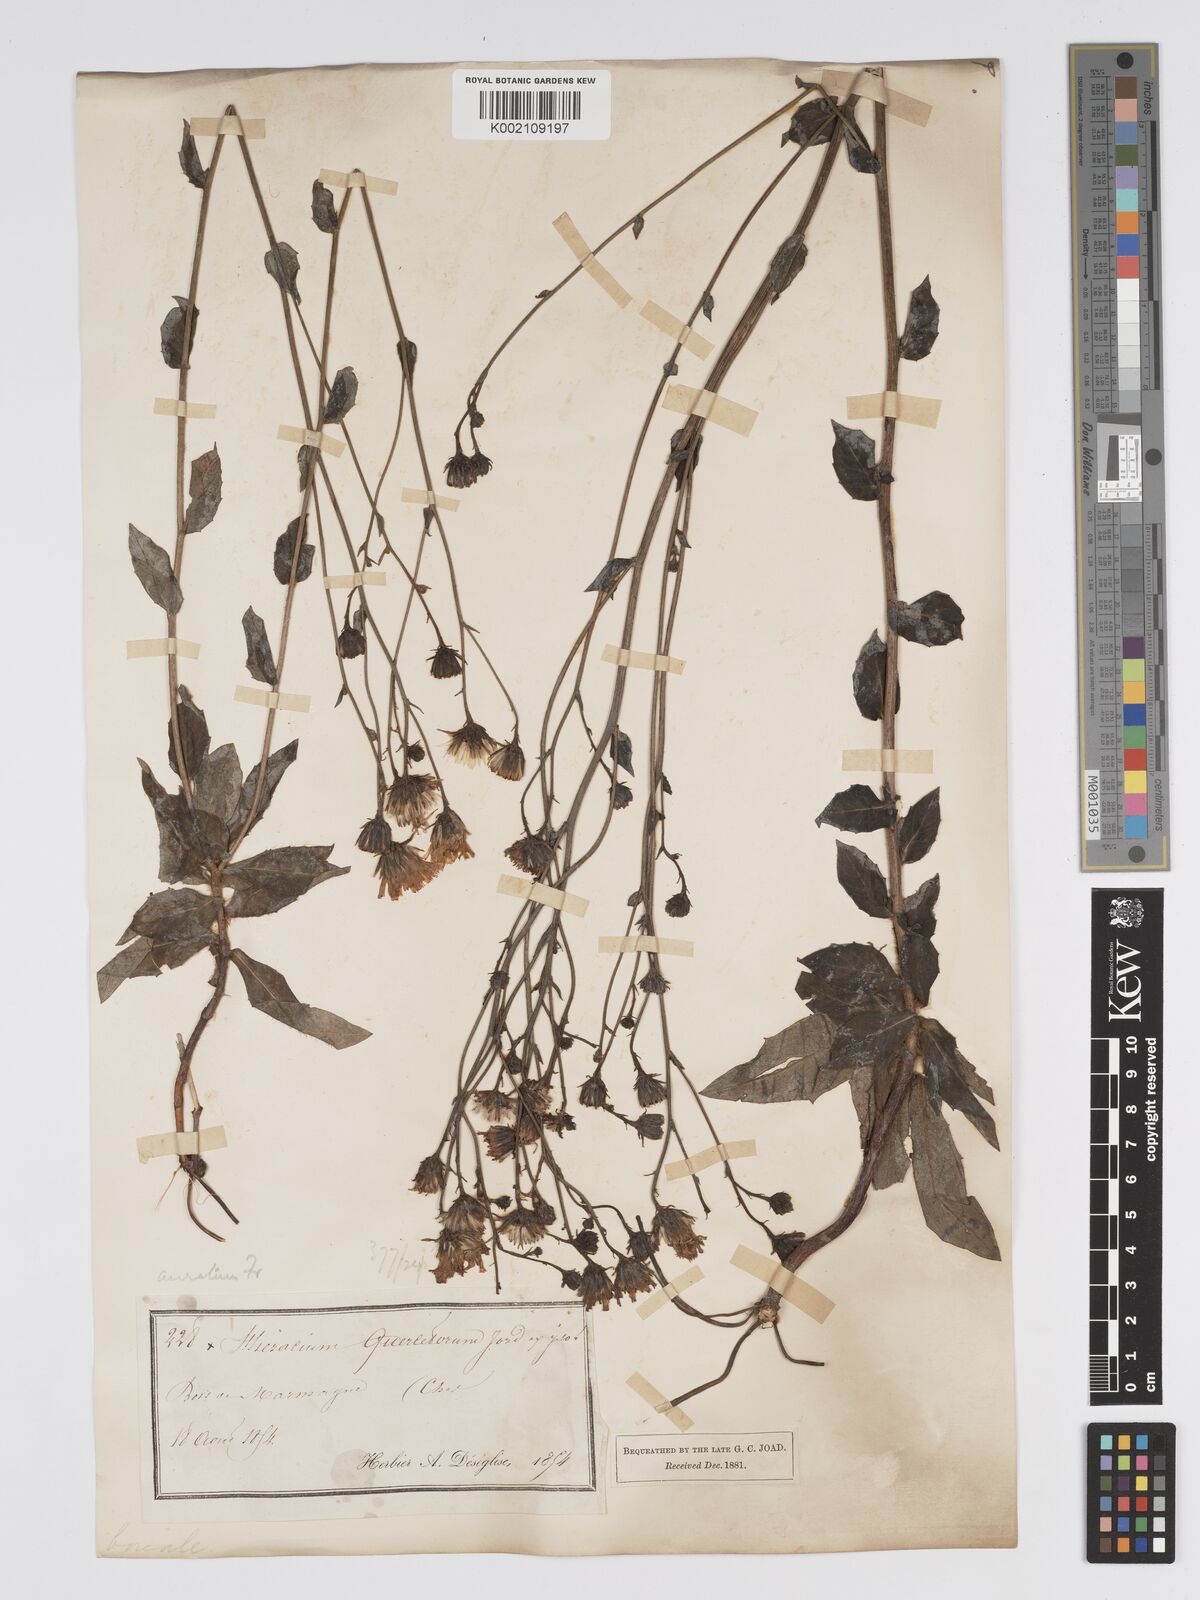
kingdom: Plantae
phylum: Tracheophyta
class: Magnoliopsida
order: Asterales
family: Asteraceae
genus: Hieracium
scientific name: Hieracium sabaudum
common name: New england hawkweed
